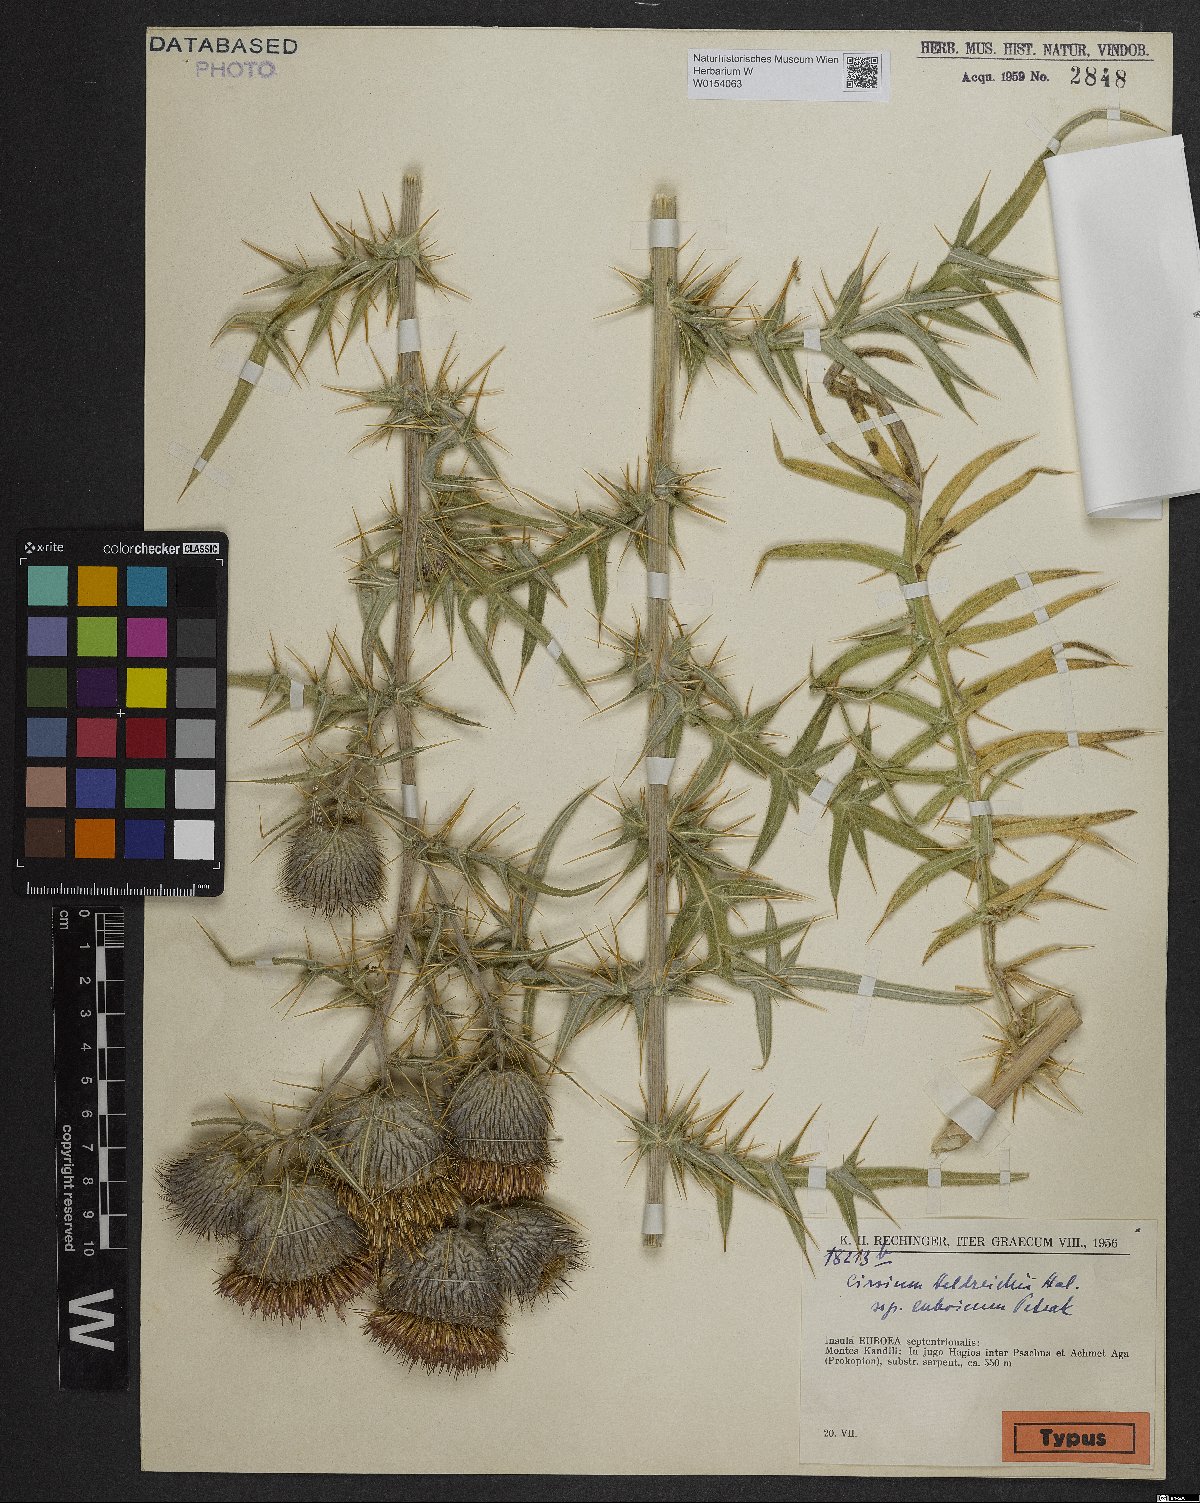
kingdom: Plantae
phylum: Tracheophyta
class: Magnoliopsida
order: Asterales
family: Asteraceae
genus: Lophiolepis
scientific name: Lophiolepis heldreichii
